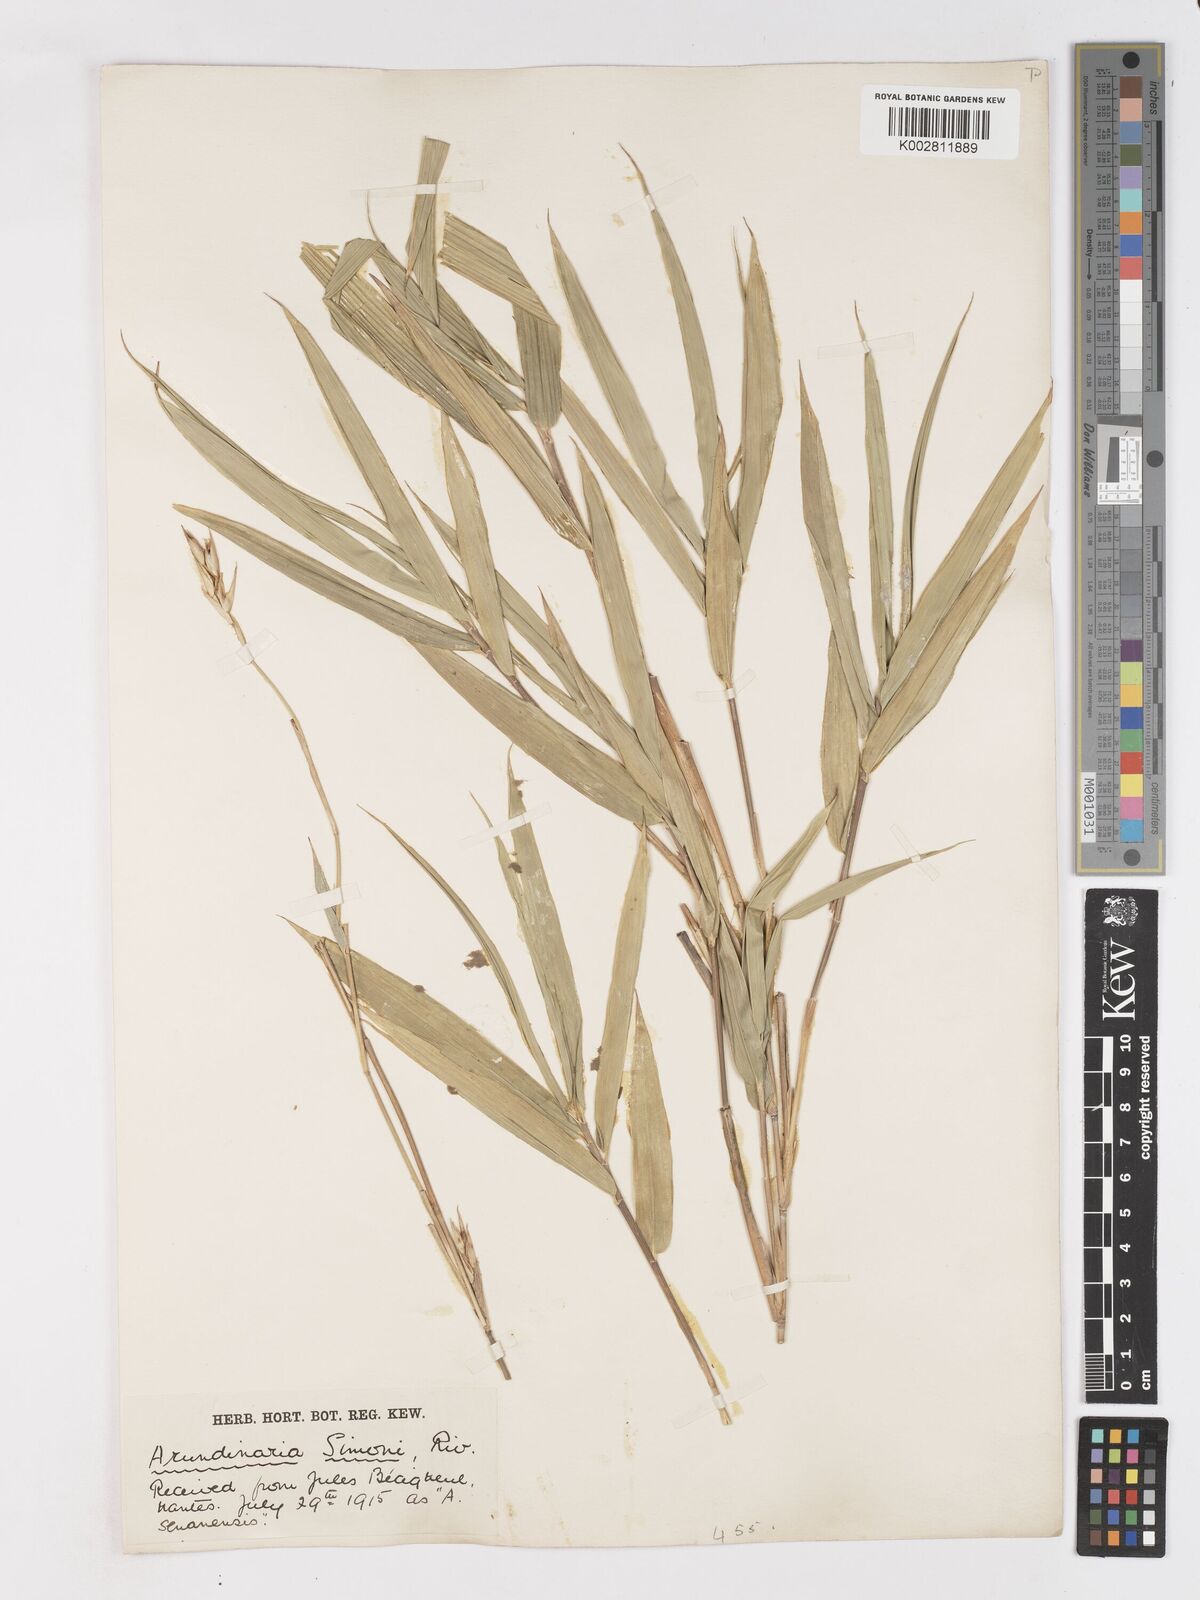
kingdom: Plantae
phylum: Tracheophyta
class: Liliopsida
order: Poales
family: Poaceae
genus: Pleioblastus
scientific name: Pleioblastus simonii
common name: Simon bamboo
